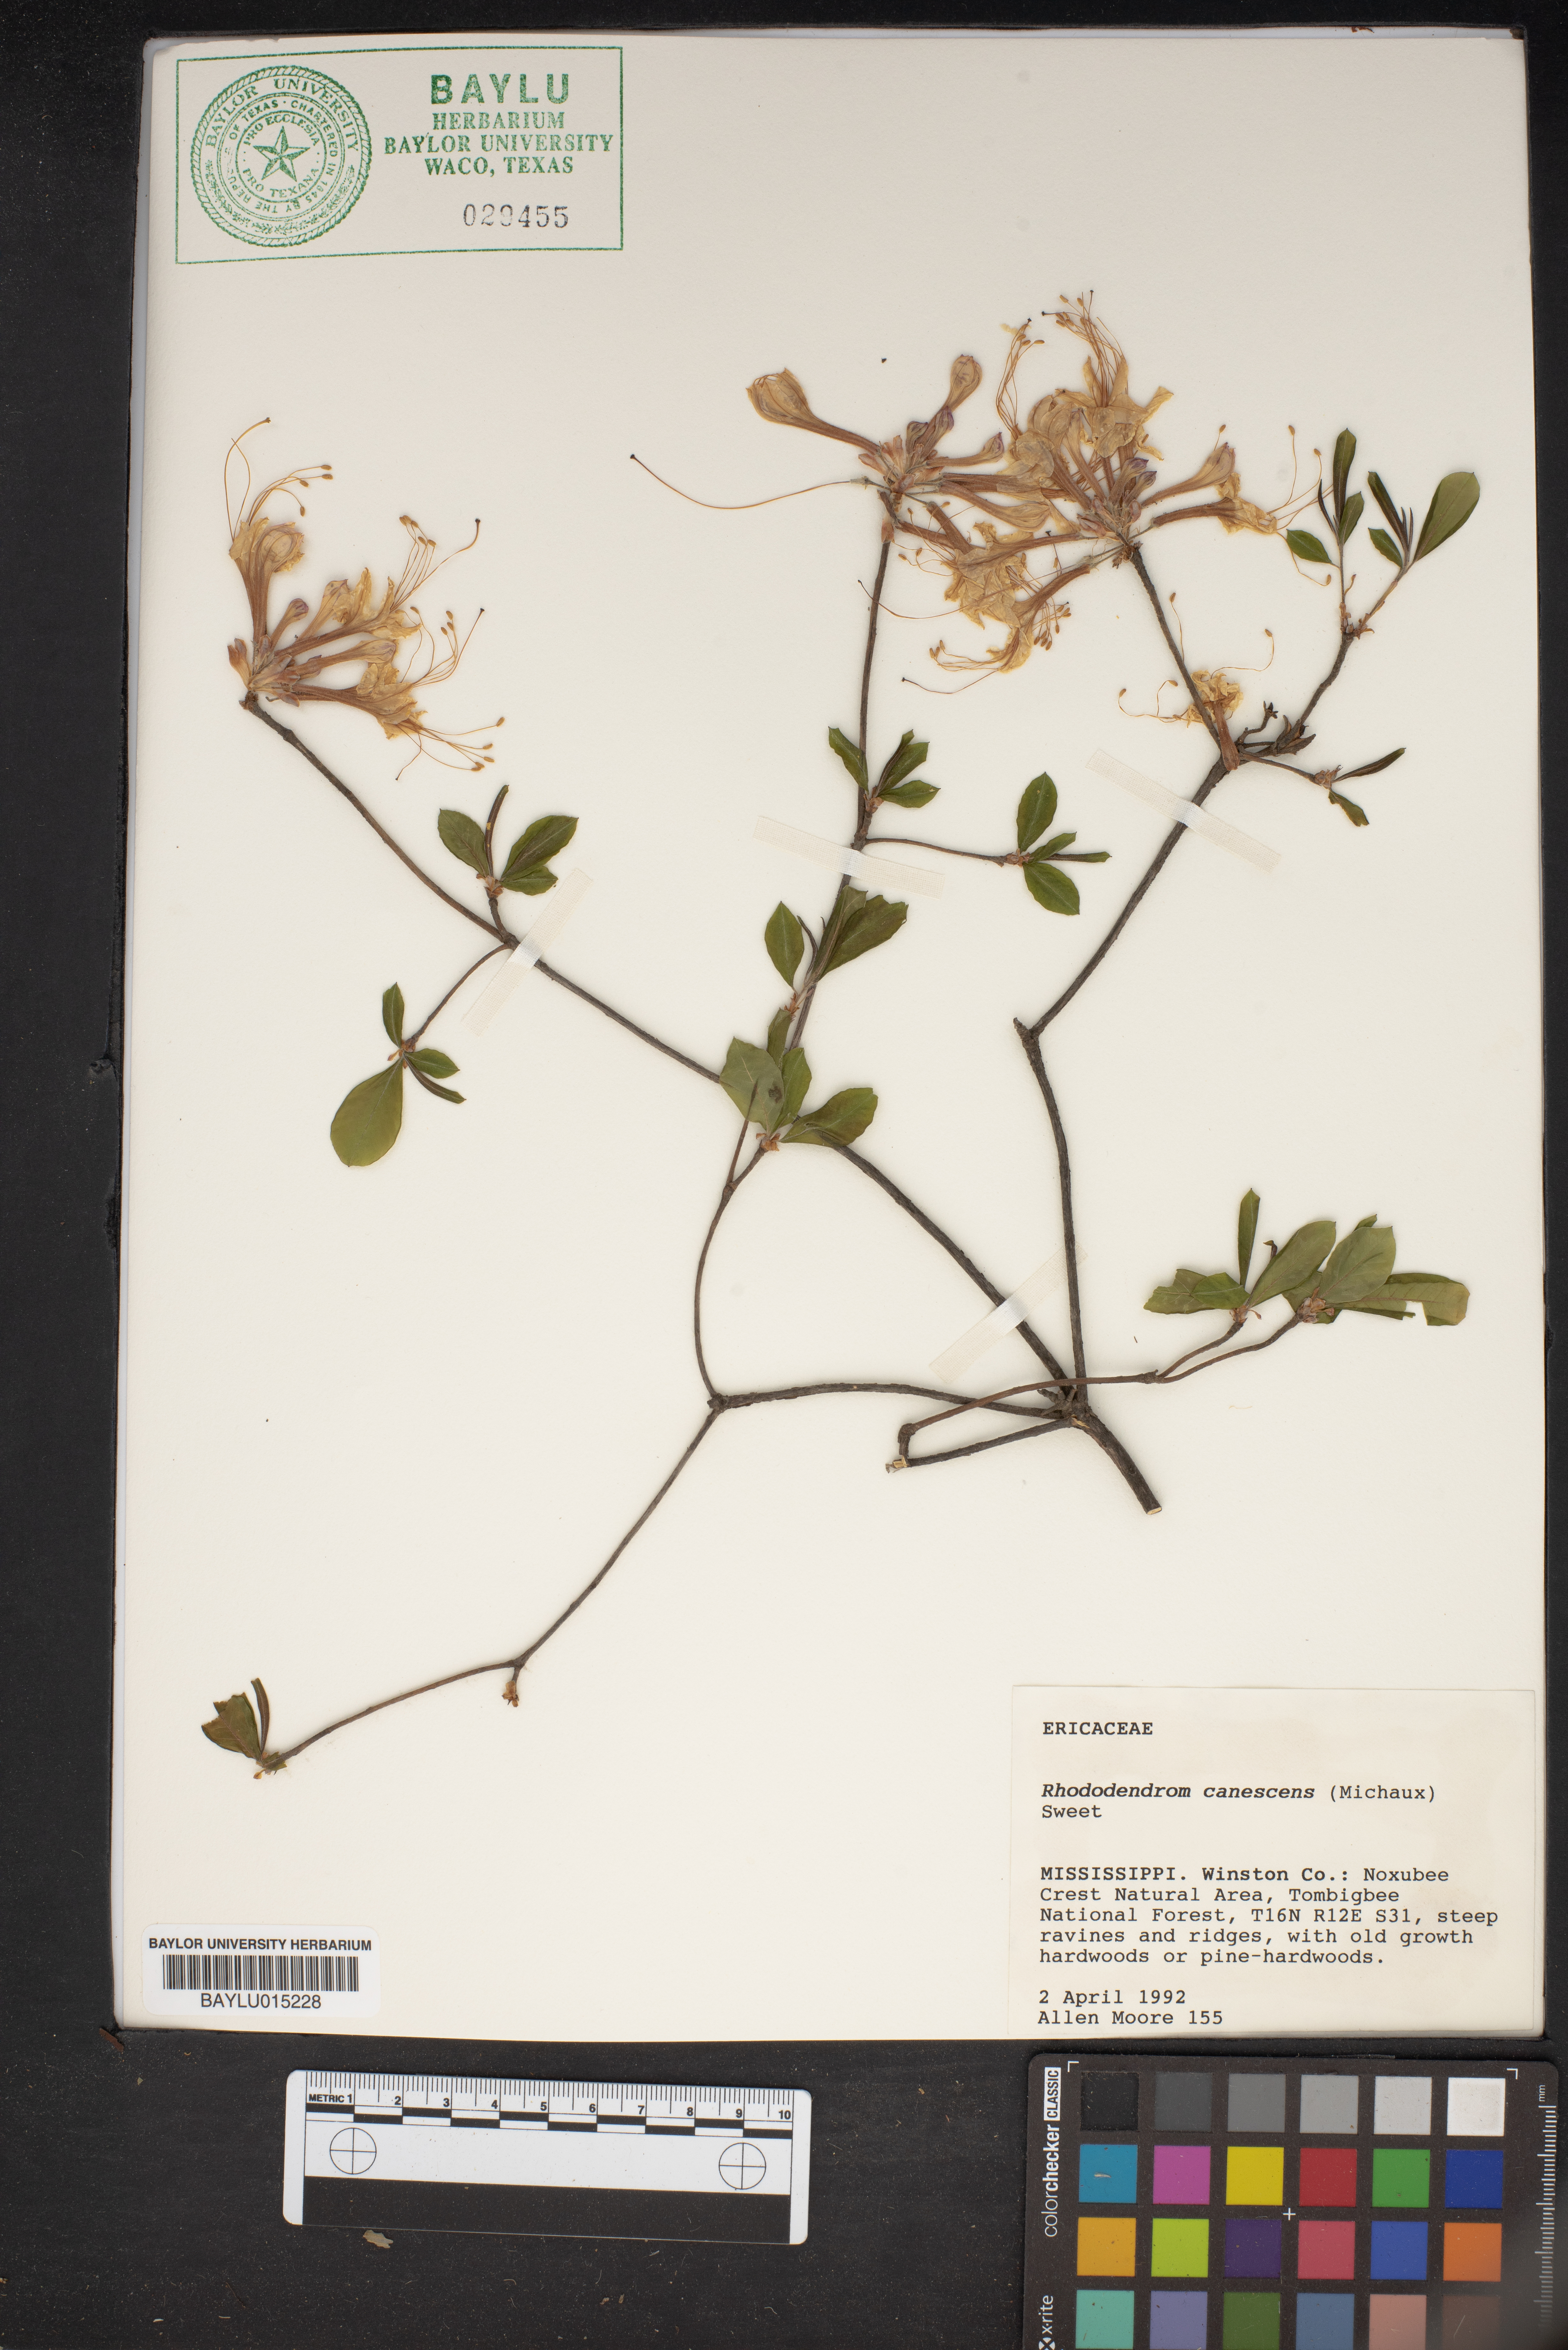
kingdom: Plantae
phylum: Tracheophyta
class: Magnoliopsida
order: Ericales
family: Ericaceae
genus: Rhododendron
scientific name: Rhododendron canescens
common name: Mountain azalea
